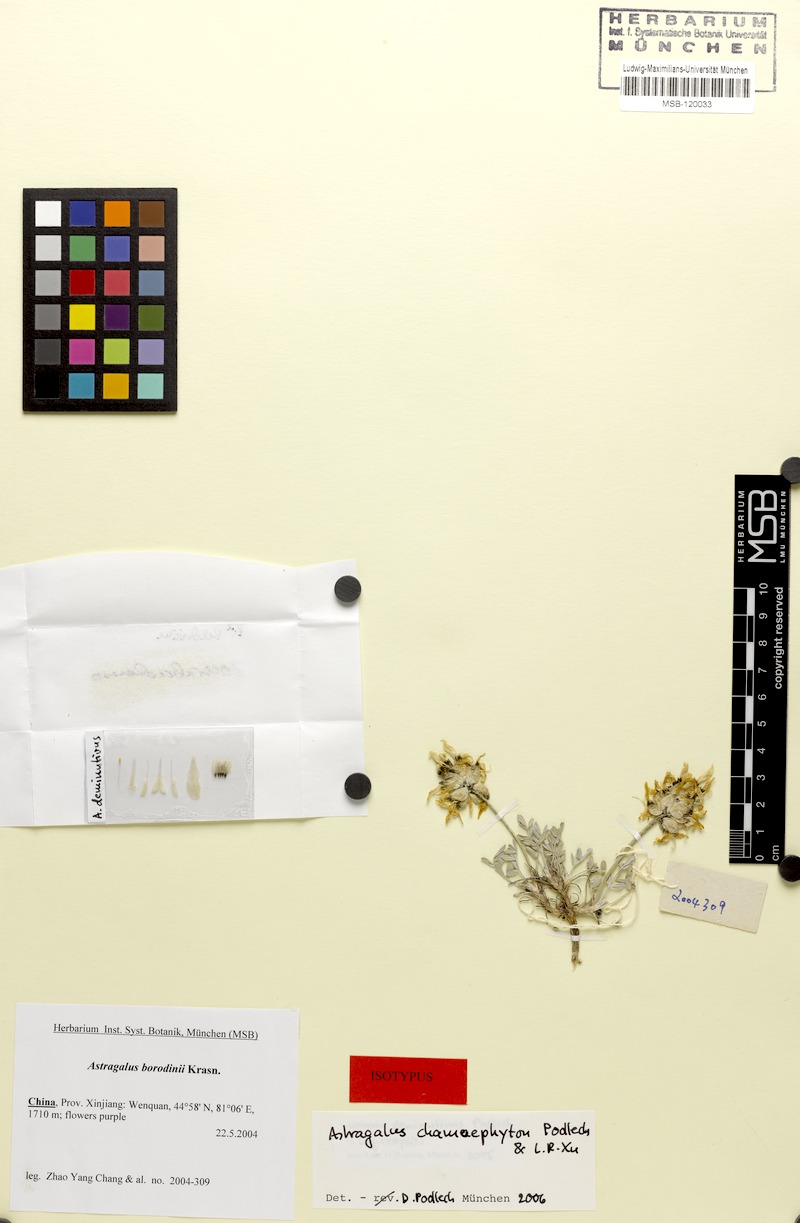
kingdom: Plantae
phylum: Tracheophyta
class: Magnoliopsida
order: Fabales
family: Fabaceae
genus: Astragalus
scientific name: Astragalus chamaephyton
